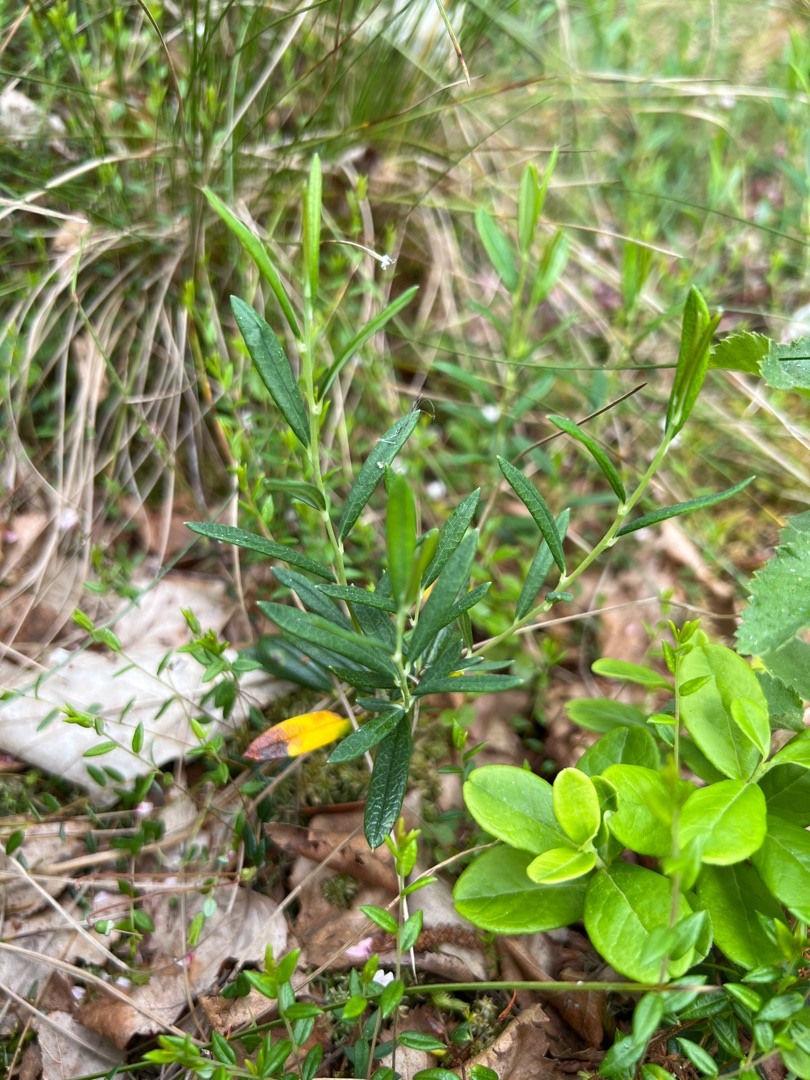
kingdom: Plantae
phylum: Tracheophyta
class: Magnoliopsida
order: Ericales
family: Ericaceae
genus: Andromeda
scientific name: Andromeda polifolia
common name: Rosmarinlyng
